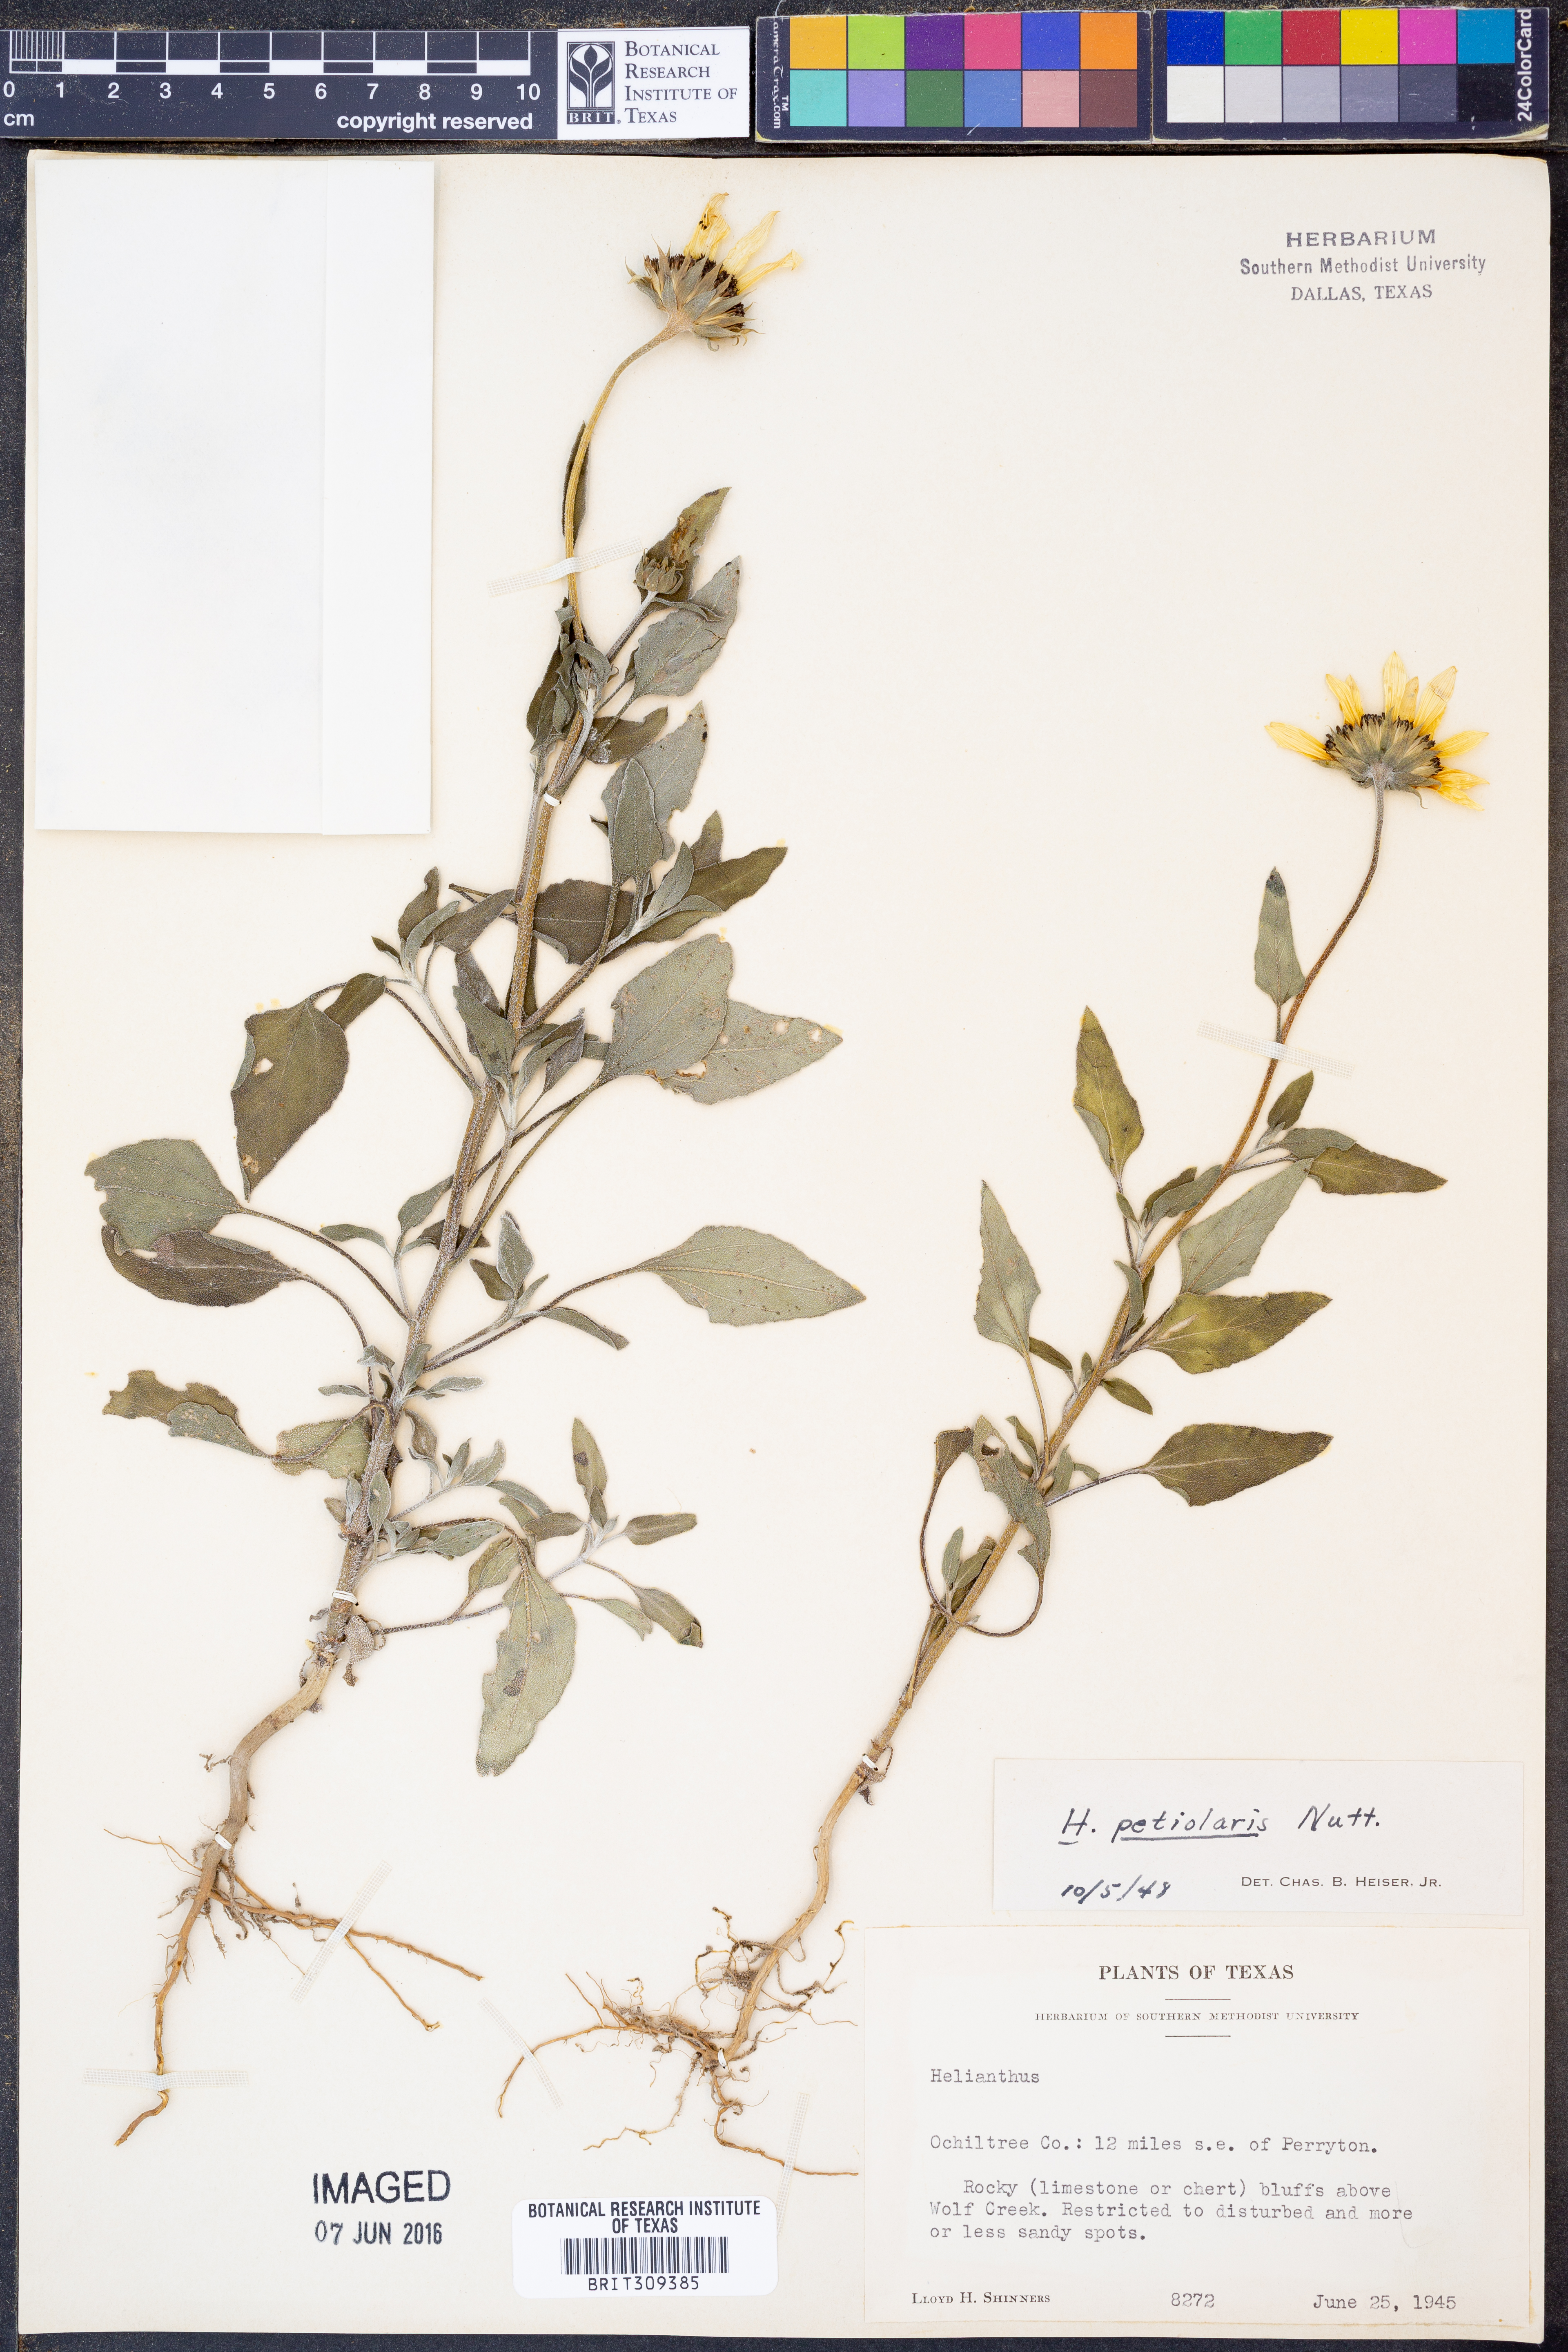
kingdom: Plantae
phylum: Tracheophyta
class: Magnoliopsida
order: Asterales
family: Asteraceae
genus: Helianthus
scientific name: Helianthus petiolaris
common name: Lesser sunflower
